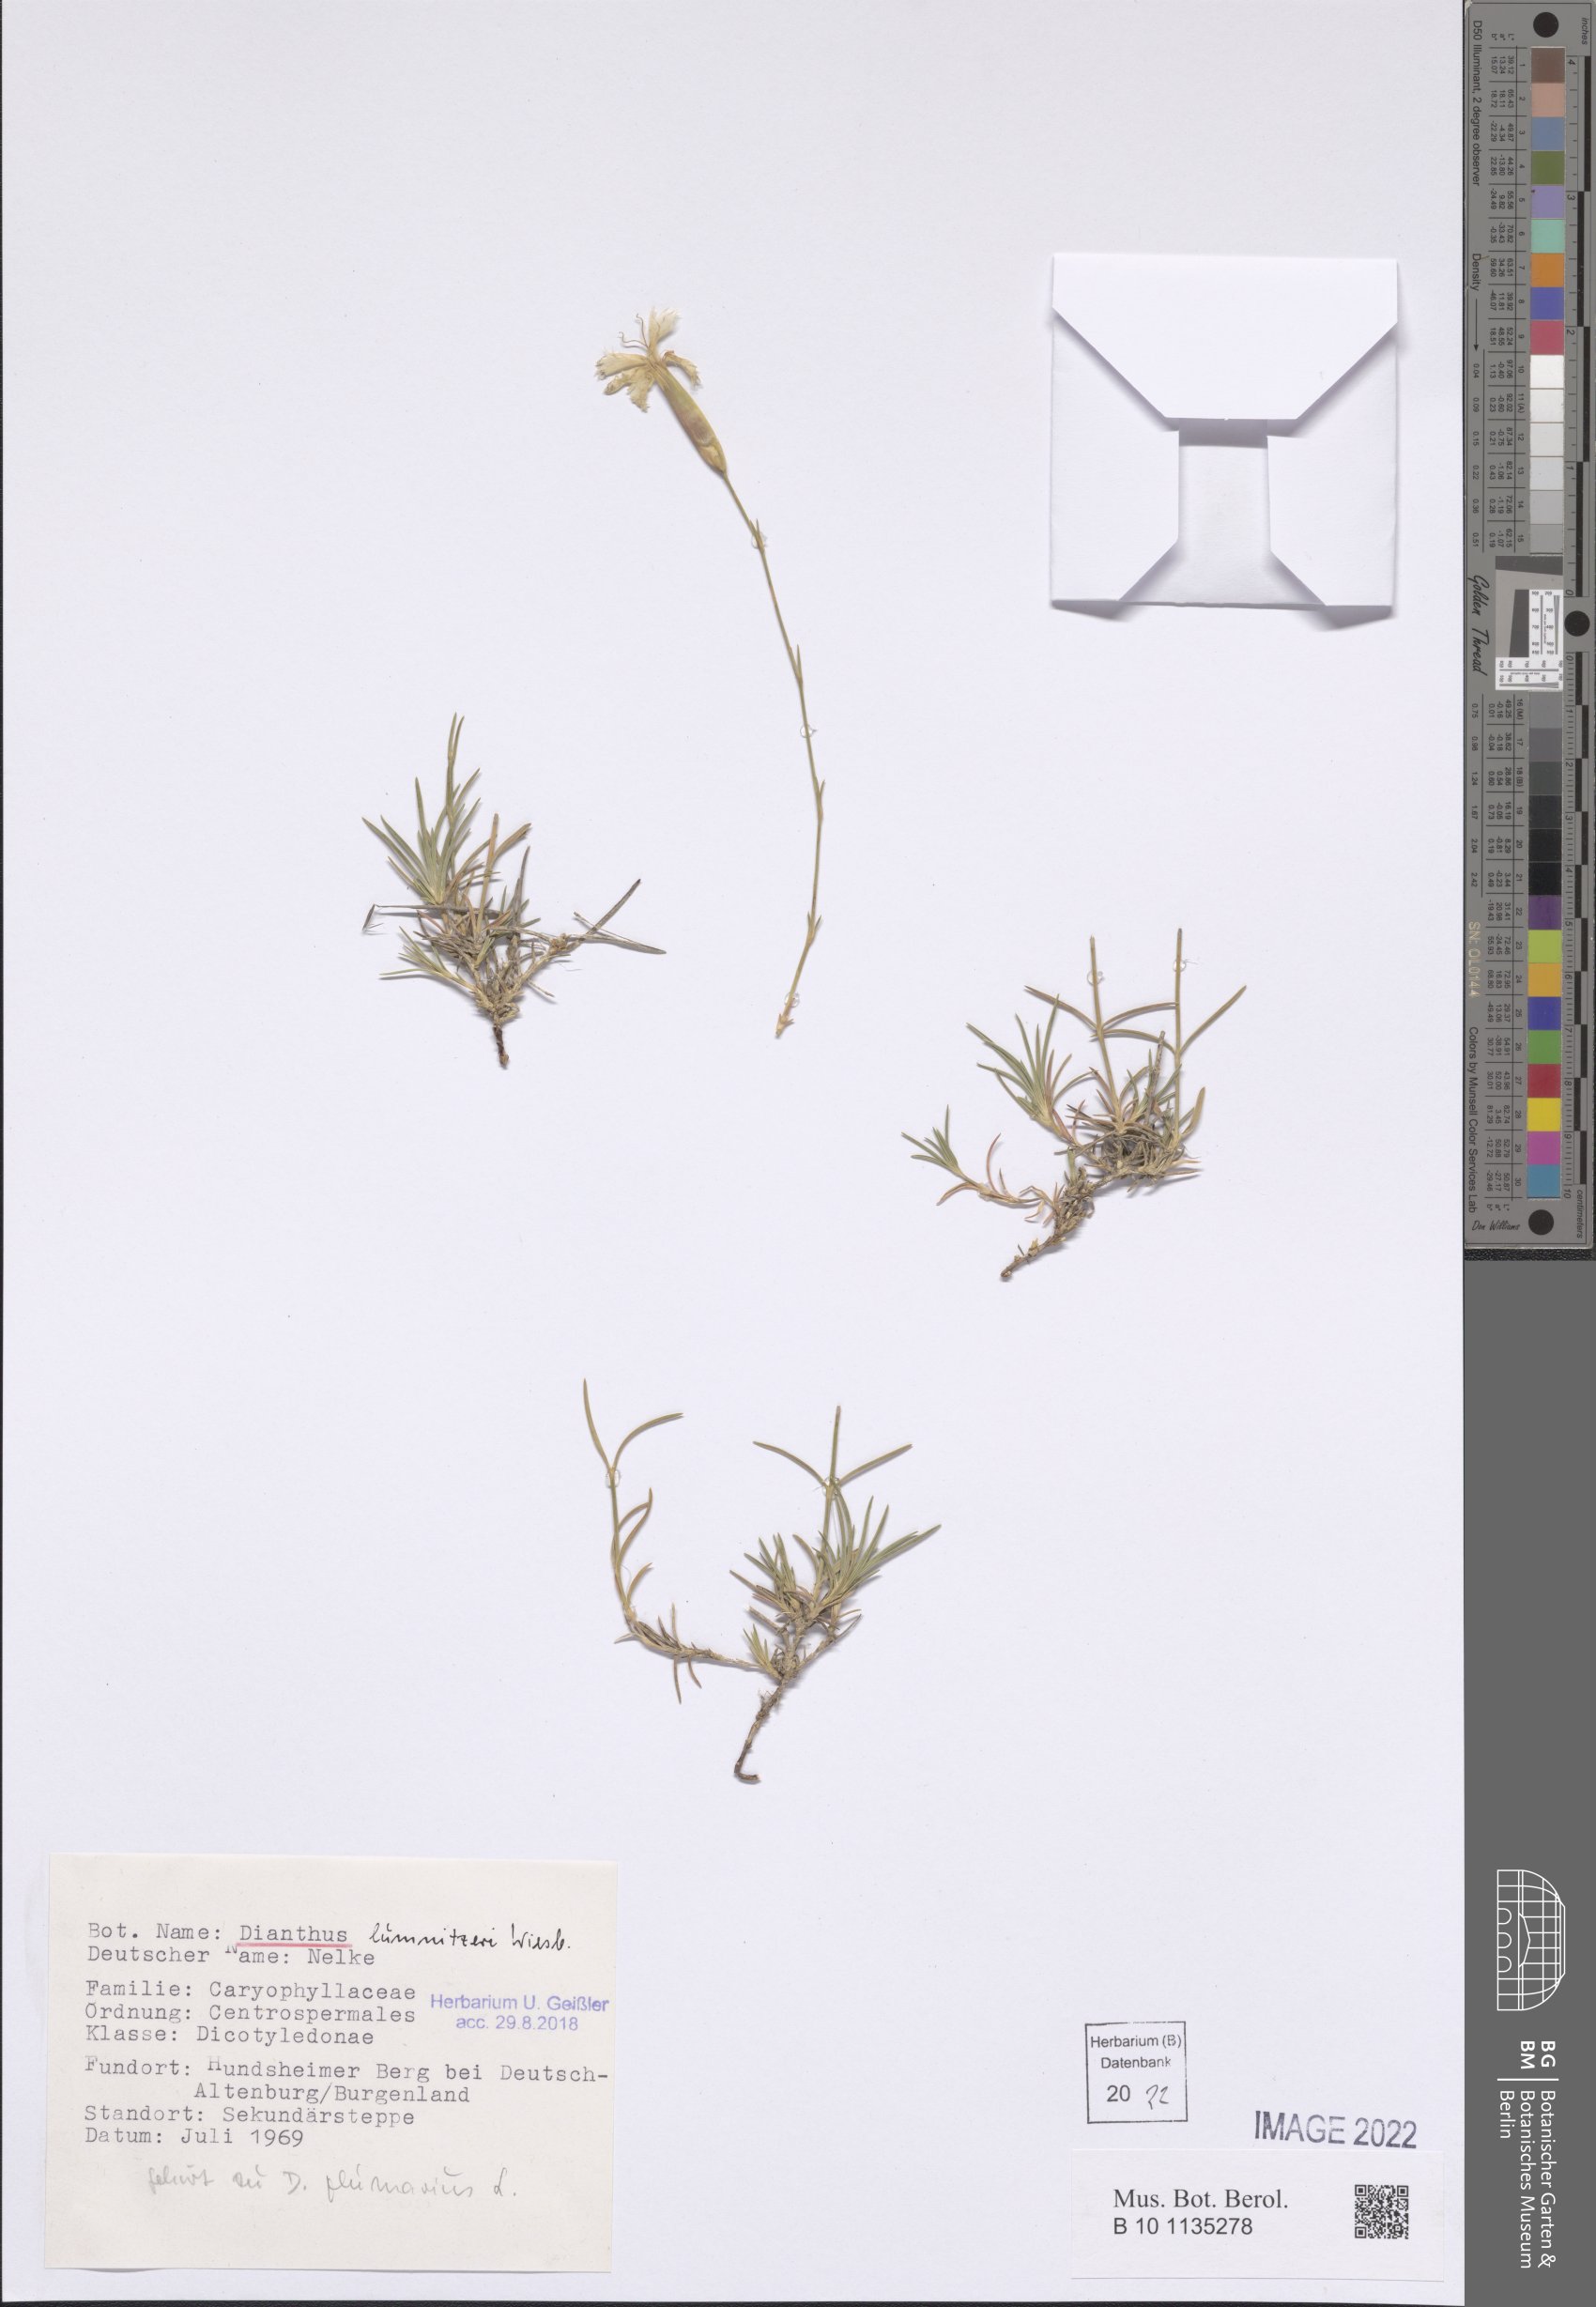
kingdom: Plantae
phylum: Tracheophyta
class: Magnoliopsida
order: Caryophyllales
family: Caryophyllaceae
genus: Dianthus
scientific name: Dianthus praecox
